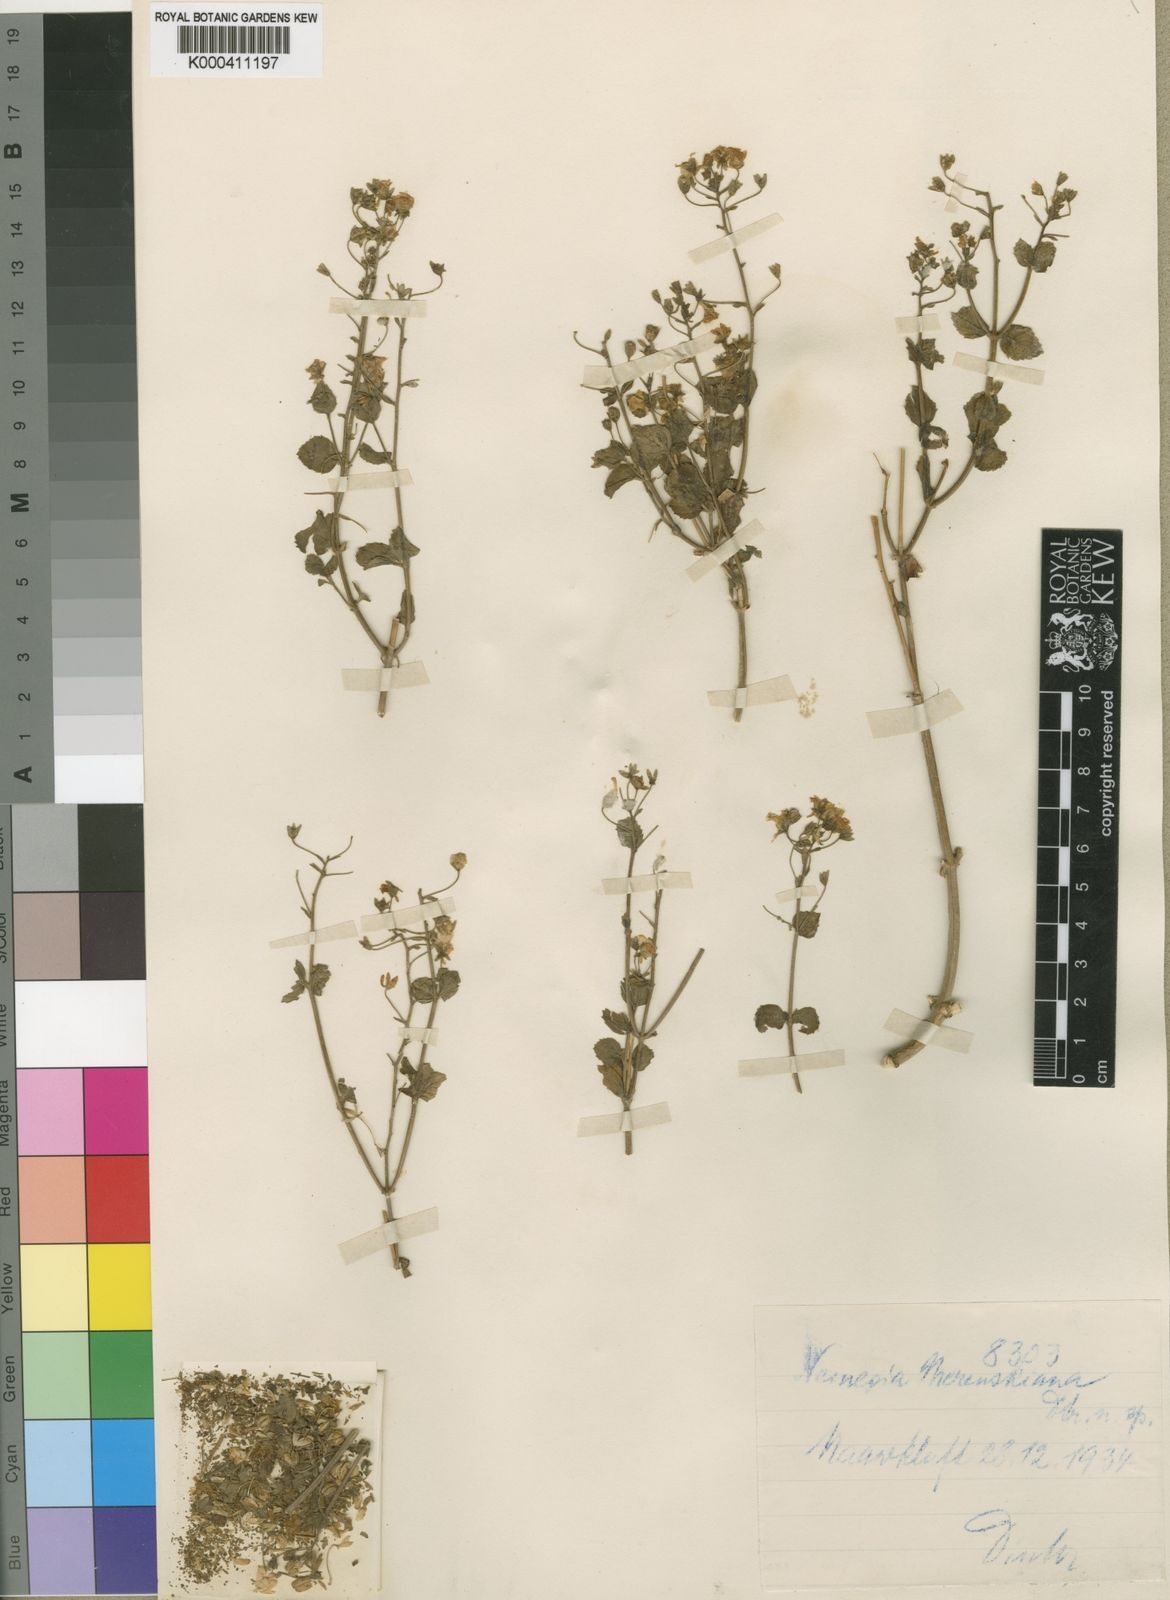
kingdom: Plantae
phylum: Tracheophyta
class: Magnoliopsida
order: Lamiales
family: Scrophulariaceae
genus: Nemesia
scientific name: Nemesia
